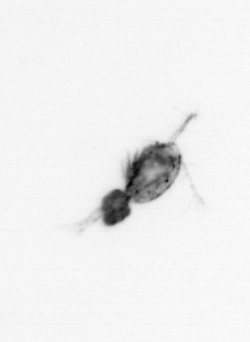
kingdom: Animalia
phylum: Arthropoda
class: Copepoda
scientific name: Copepoda
